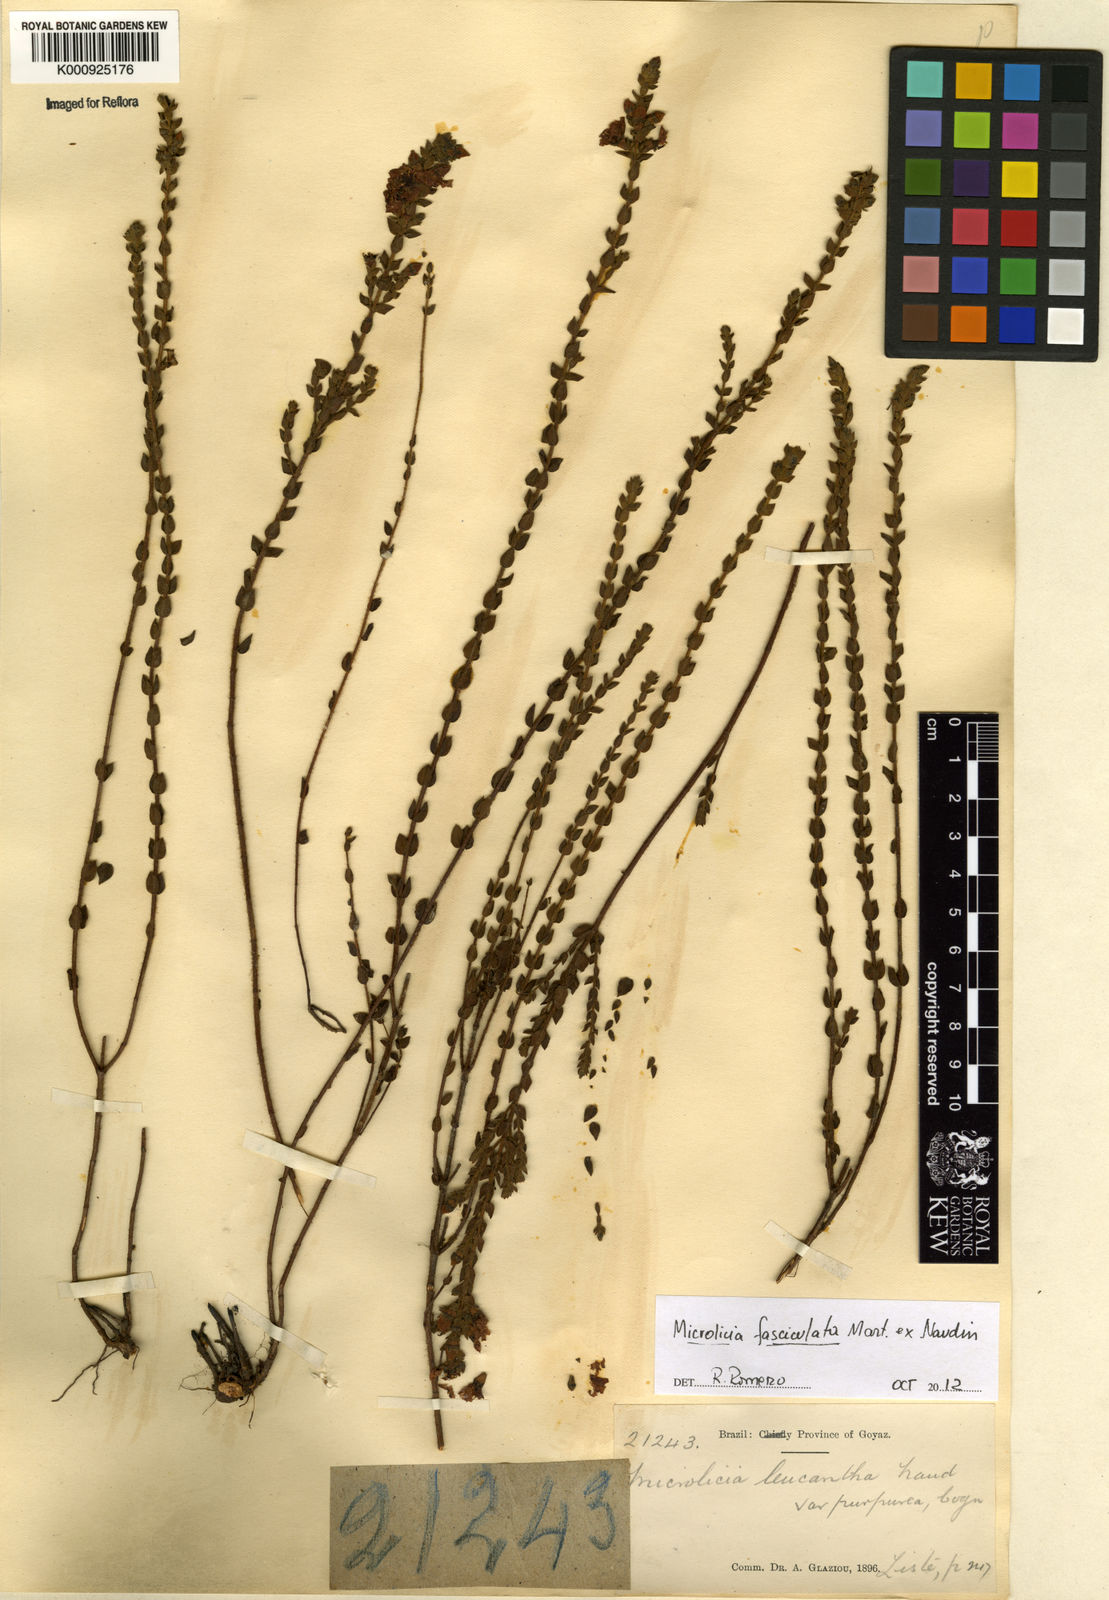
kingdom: Plantae
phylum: Tracheophyta
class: Magnoliopsida
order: Myrtales
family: Melastomataceae
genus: Microlicia
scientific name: Microlicia fasciculata
